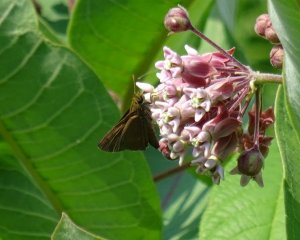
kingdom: Animalia
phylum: Arthropoda
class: Insecta
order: Lepidoptera
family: Hesperiidae
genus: Euphyes
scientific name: Euphyes vestris
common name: Dun Skipper
